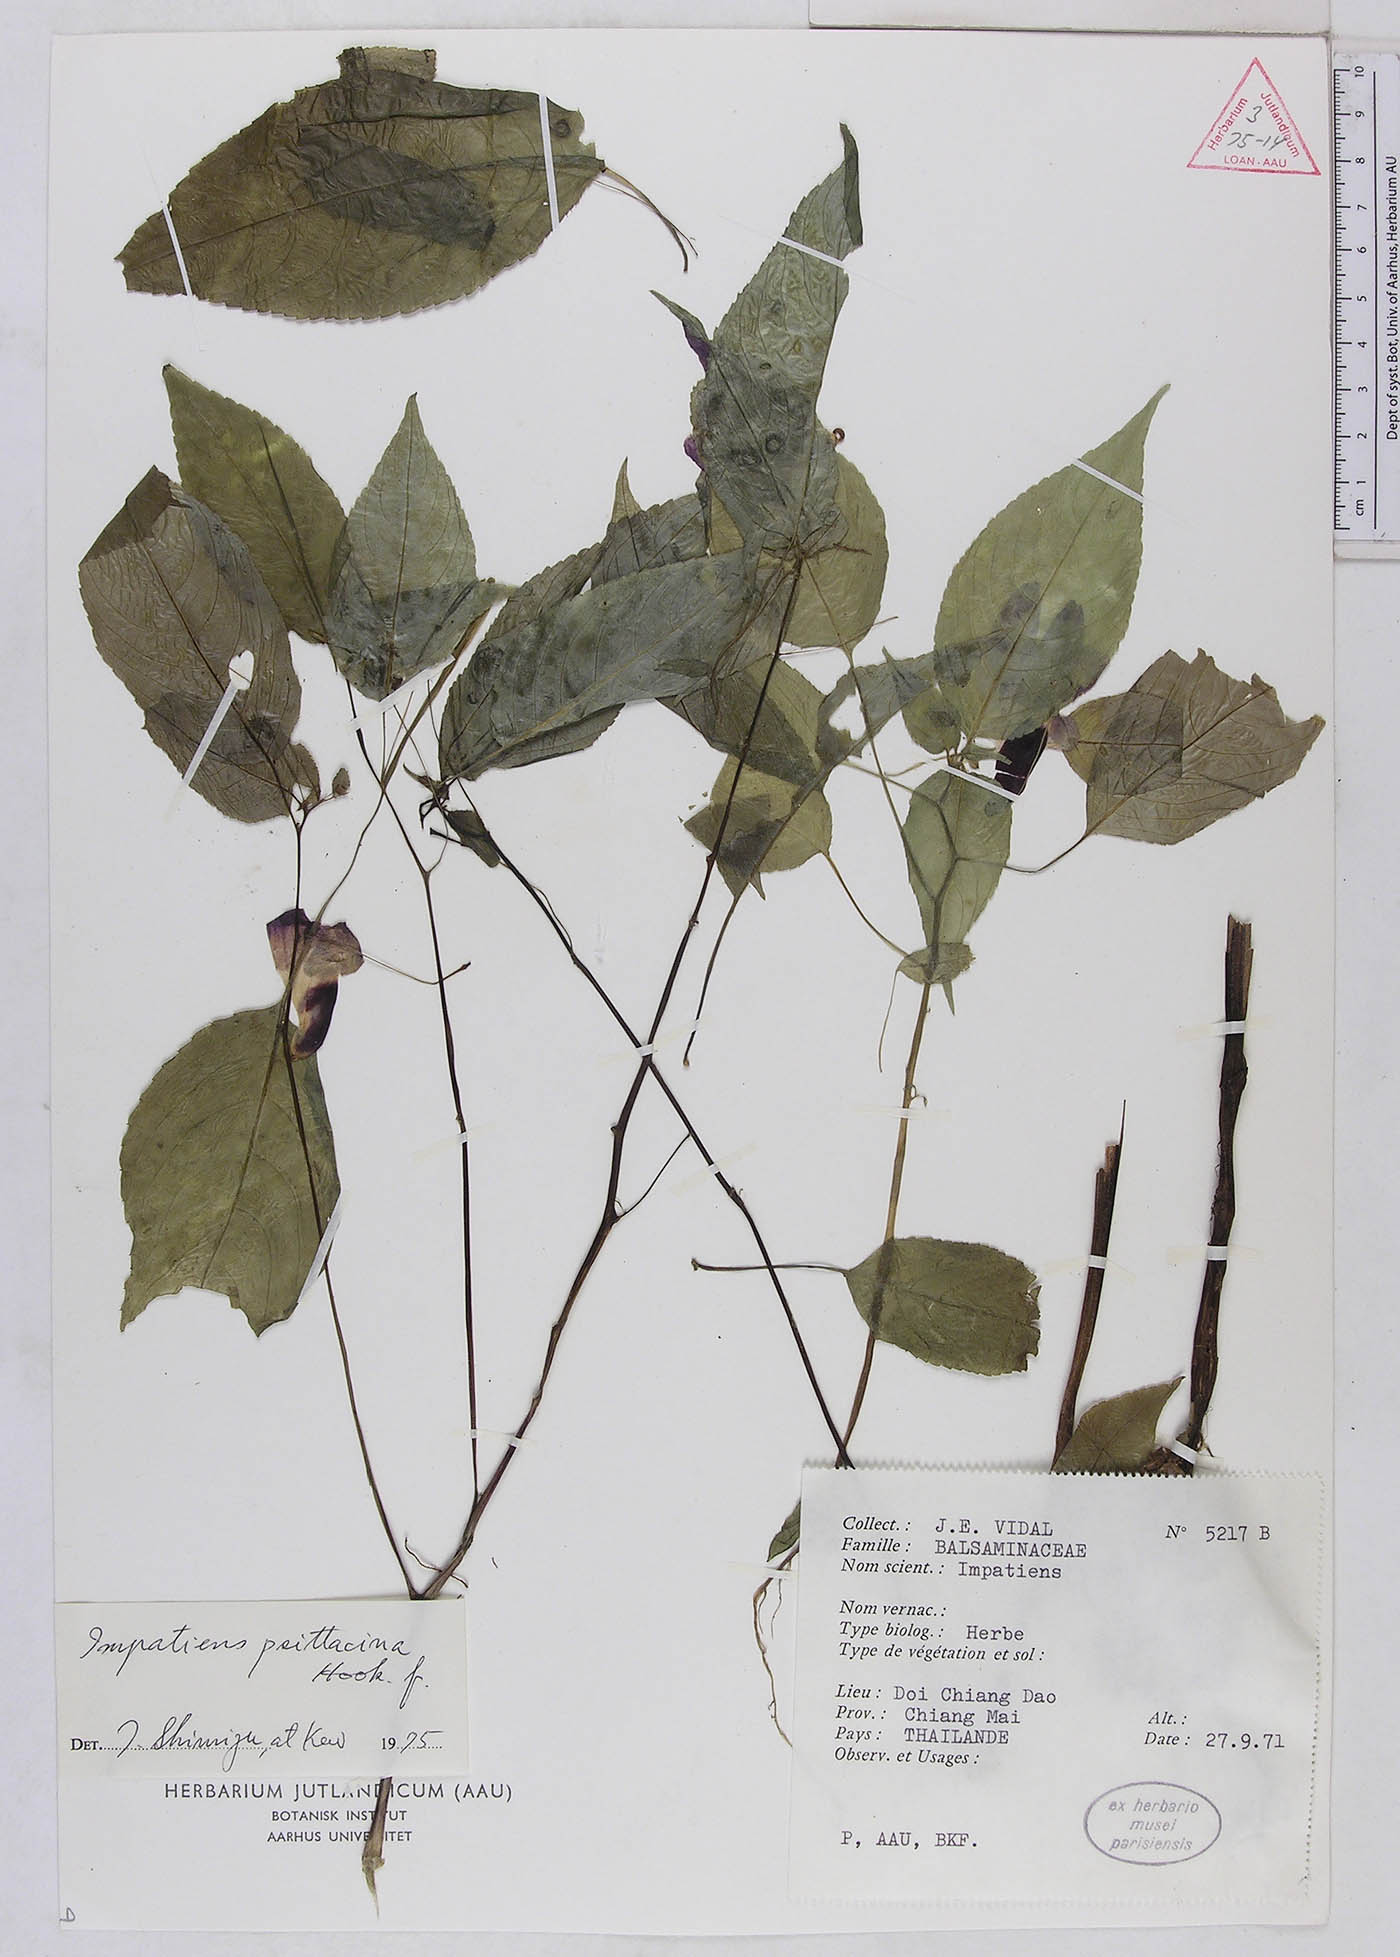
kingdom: Plantae
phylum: Tracheophyta
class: Magnoliopsida
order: Ericales
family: Balsaminaceae
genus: Impatiens
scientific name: Impatiens psittacina
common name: Parrot-flower
